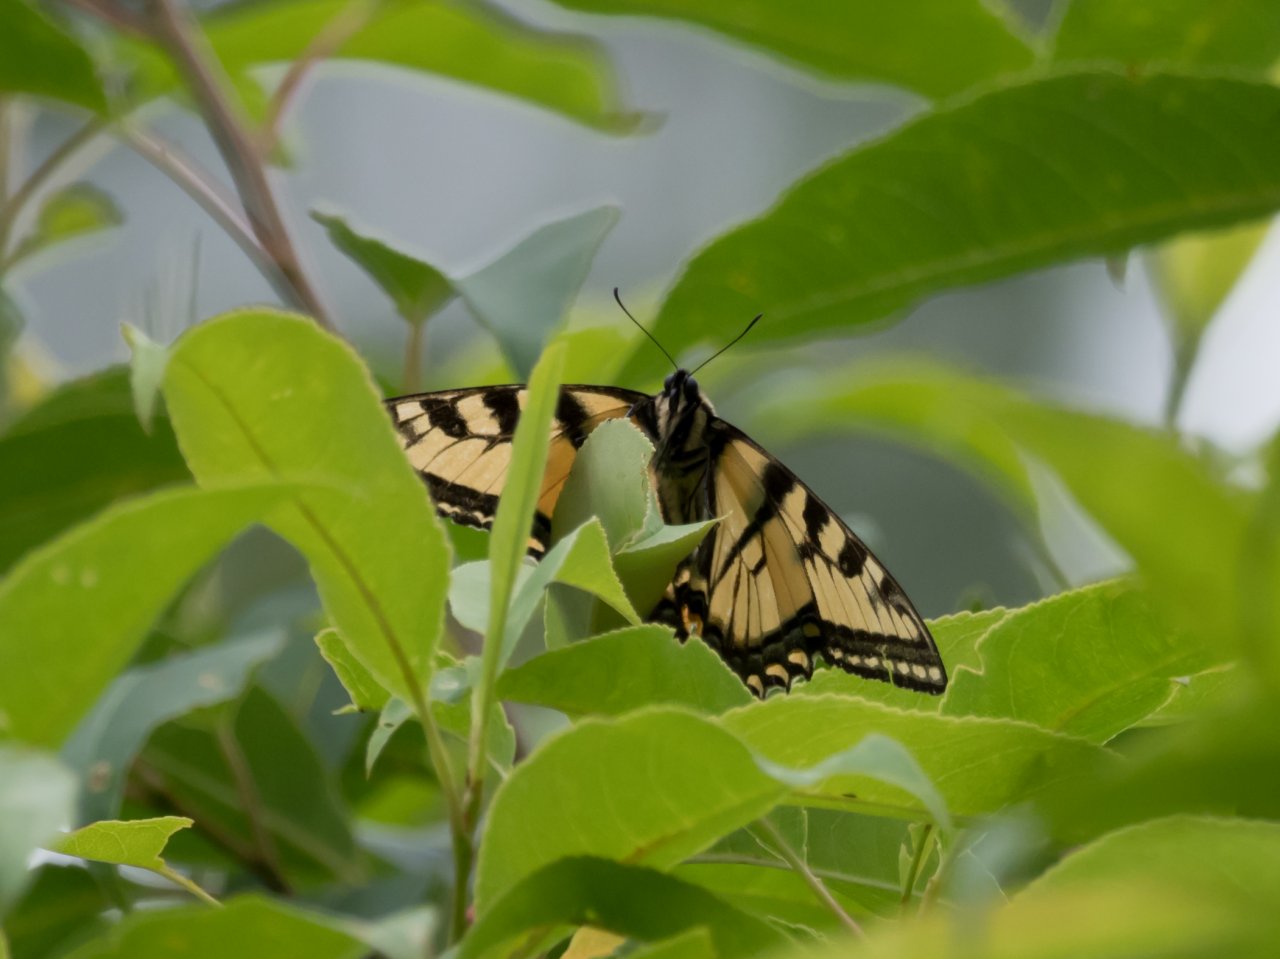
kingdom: Animalia
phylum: Arthropoda
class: Insecta
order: Lepidoptera
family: Papilionidae
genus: Pterourus
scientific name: Pterourus canadensis
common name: Canadian Tiger Swallowtail
